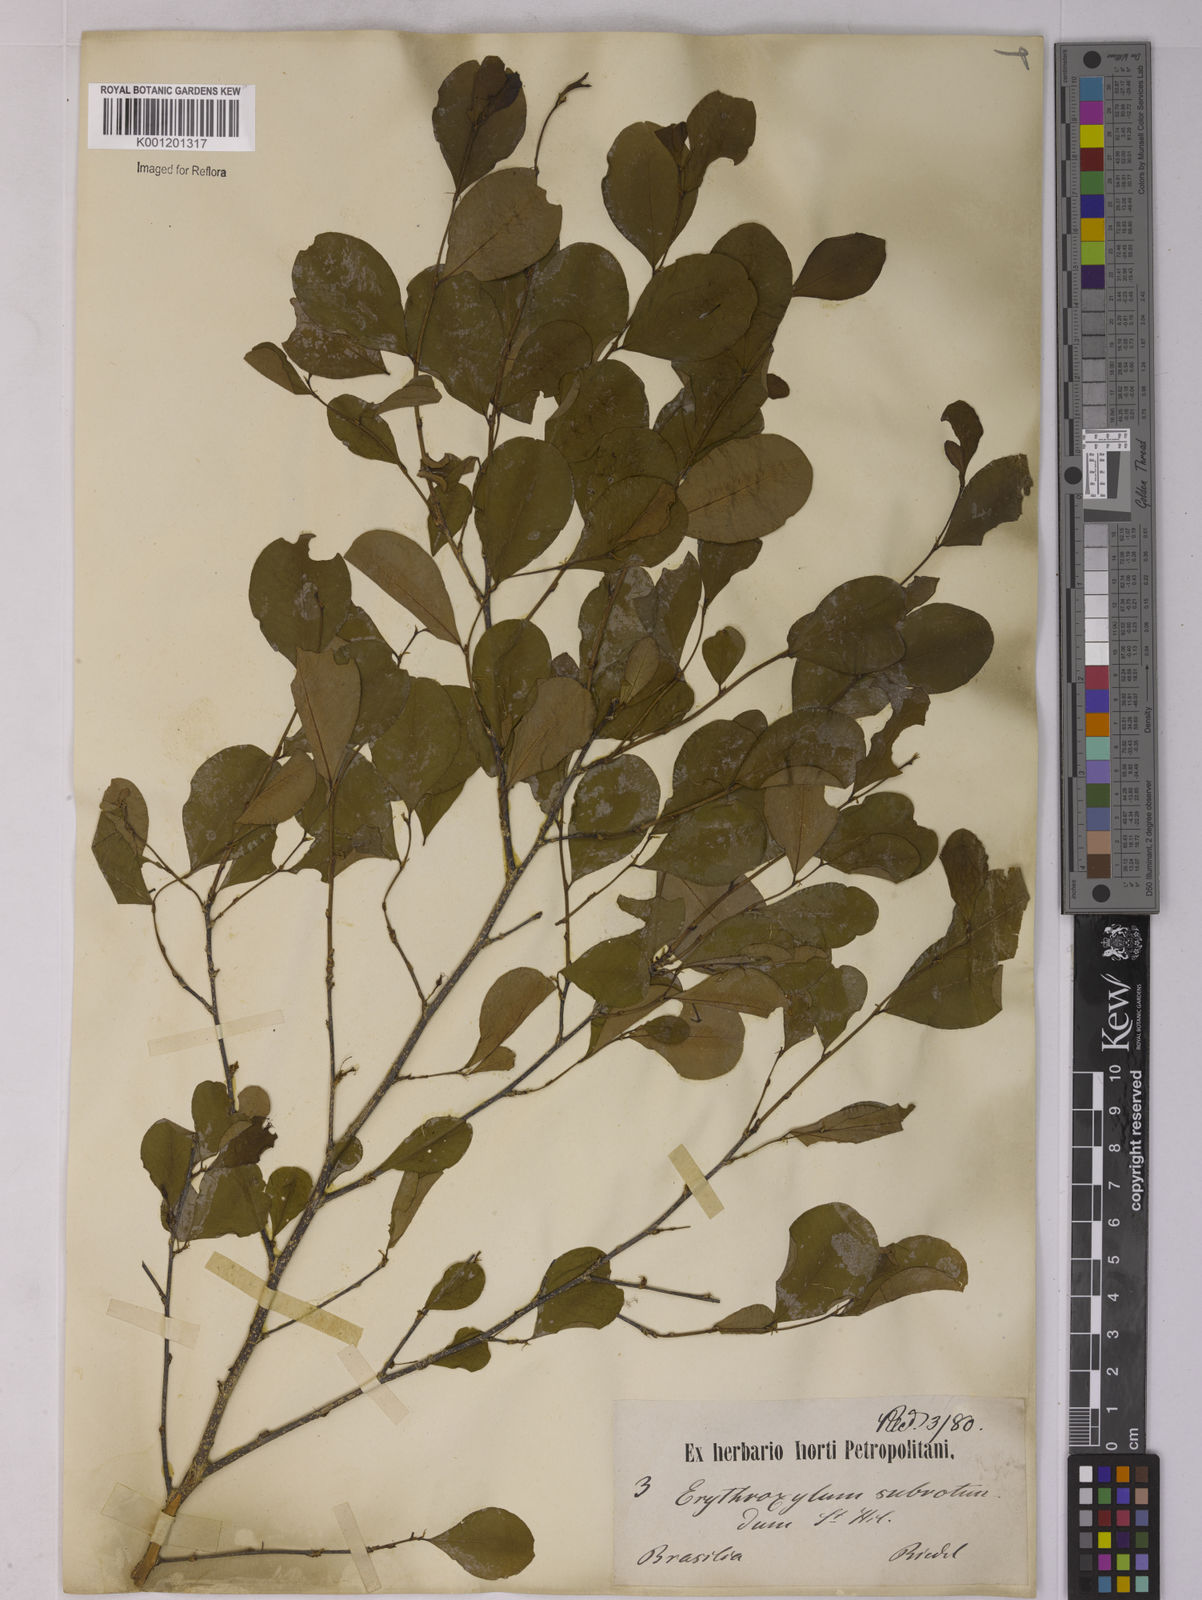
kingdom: Plantae
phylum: Tracheophyta
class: Magnoliopsida
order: Malpighiales
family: Erythroxylaceae
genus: Erythroxylum
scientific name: Erythroxylum subrotundum
